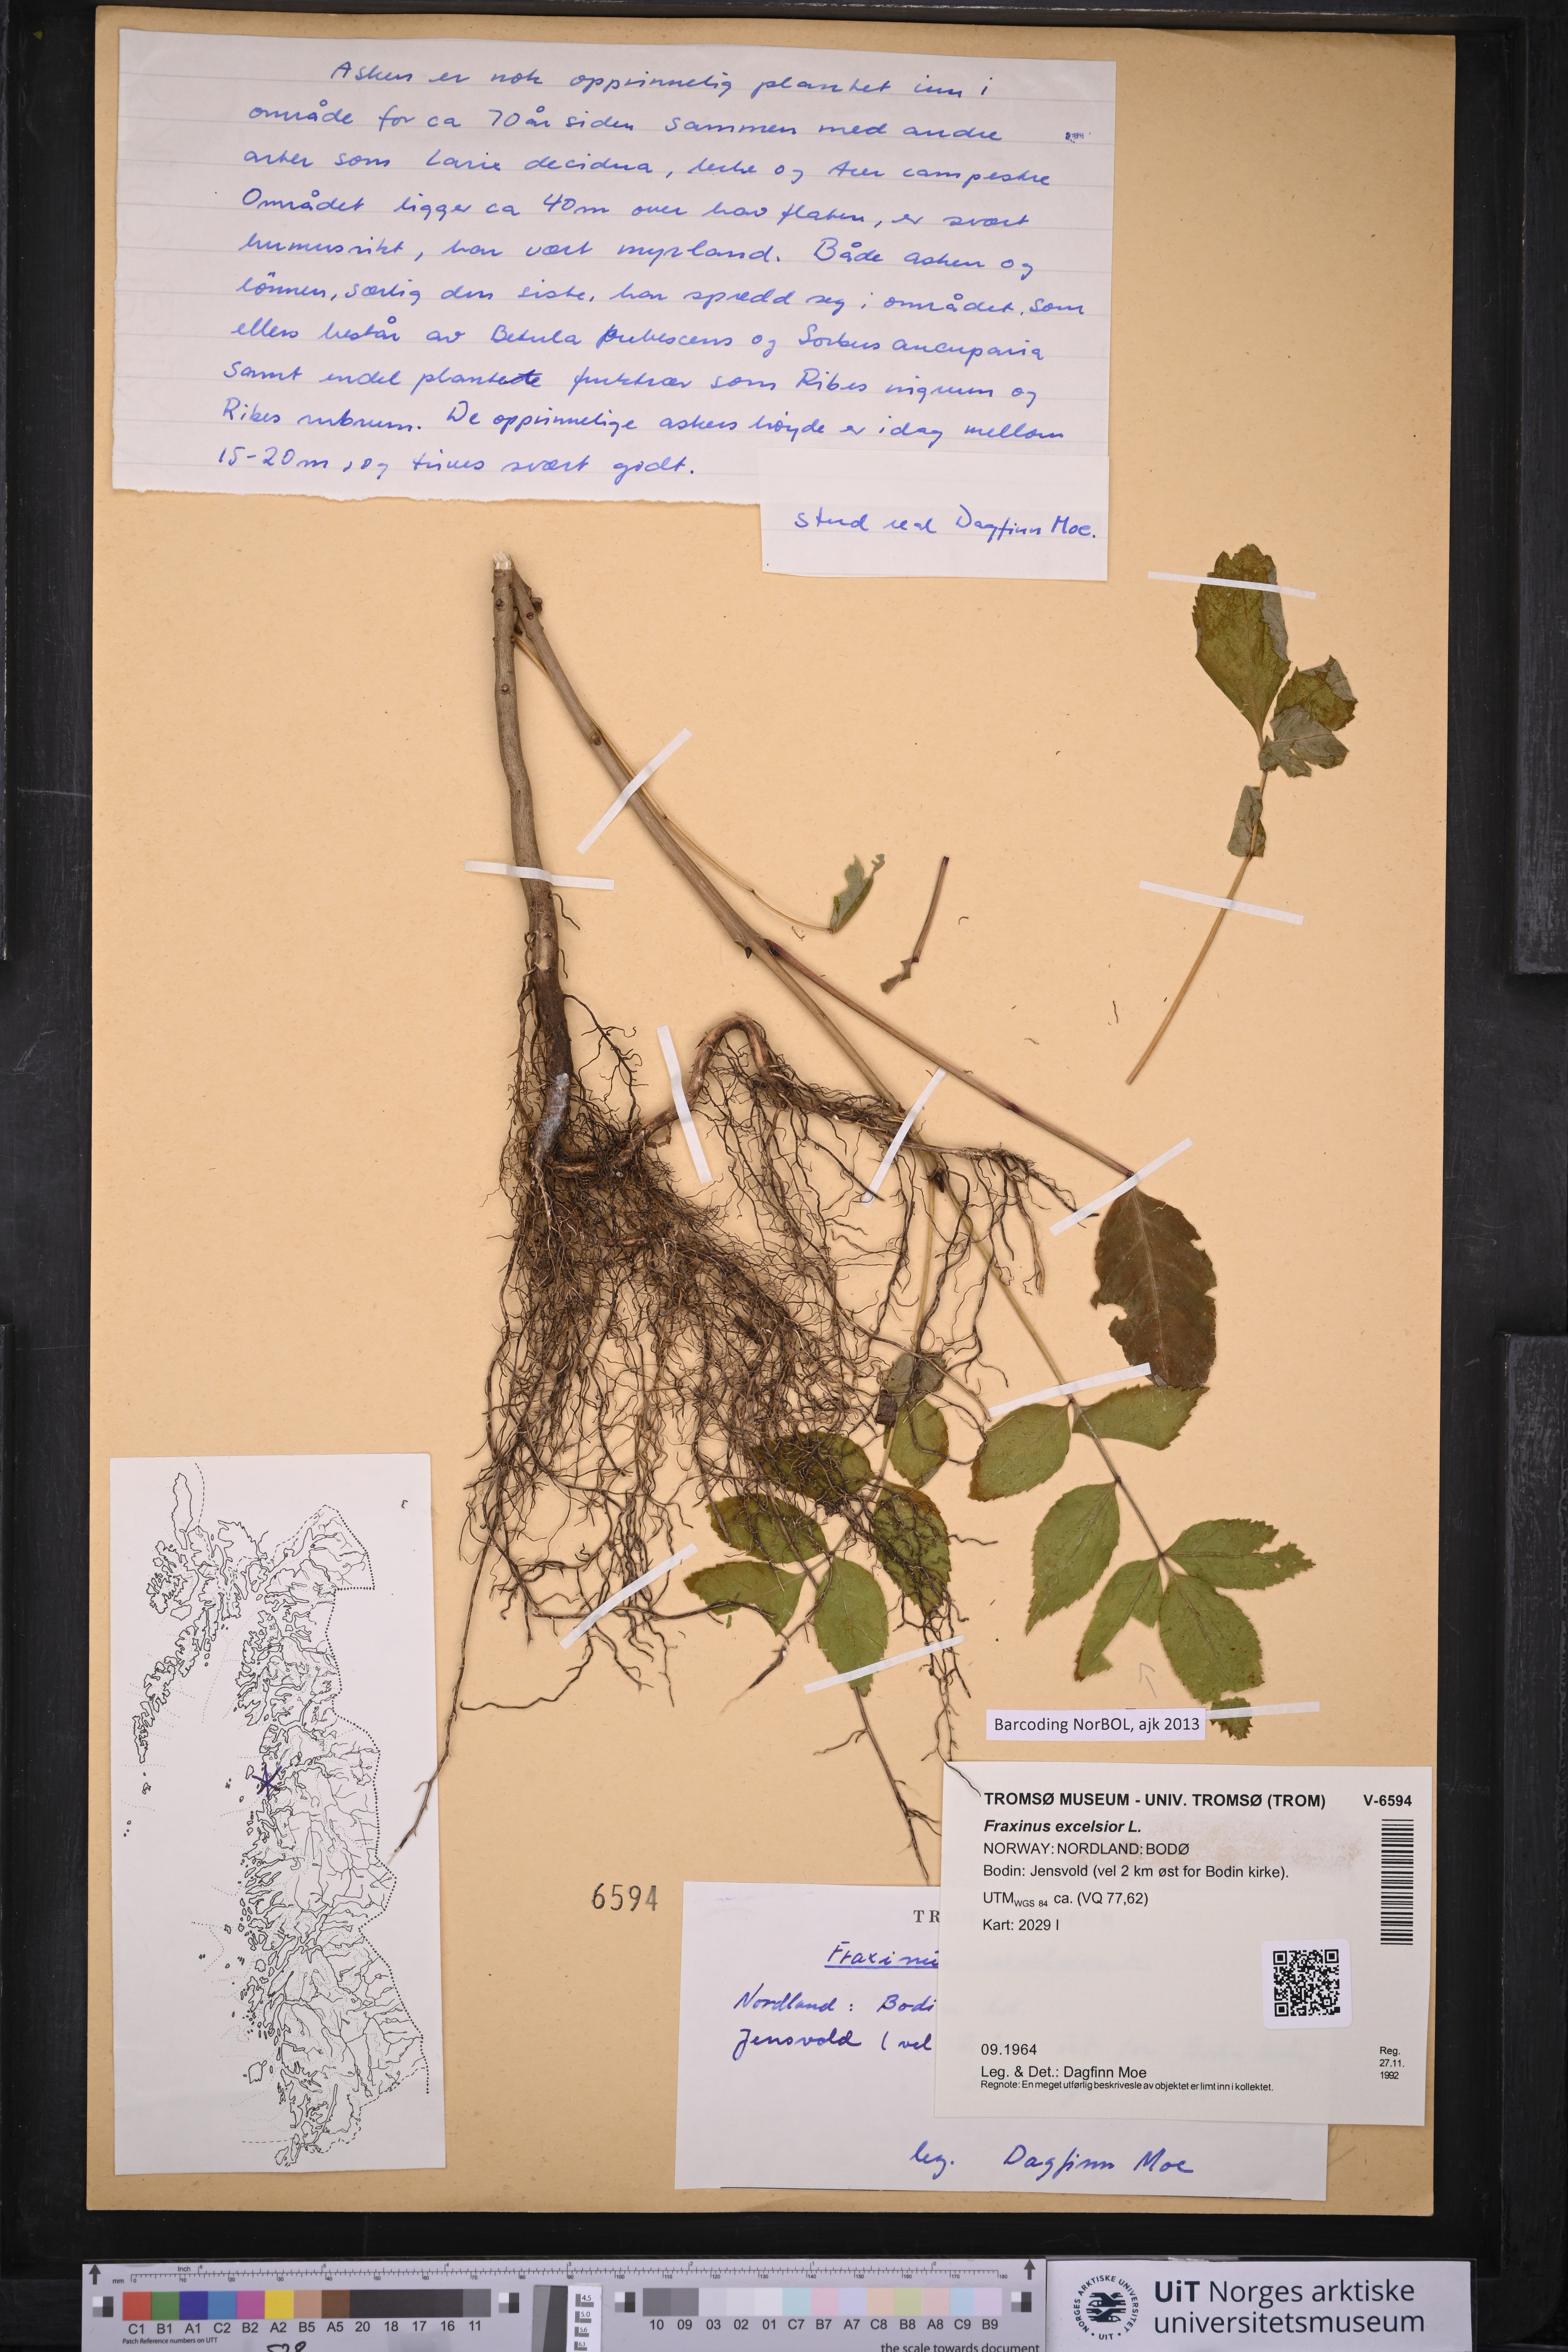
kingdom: Plantae
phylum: Tracheophyta
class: Magnoliopsida
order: Lamiales
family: Oleaceae
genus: Fraxinus
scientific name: Fraxinus excelsior
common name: European ash
